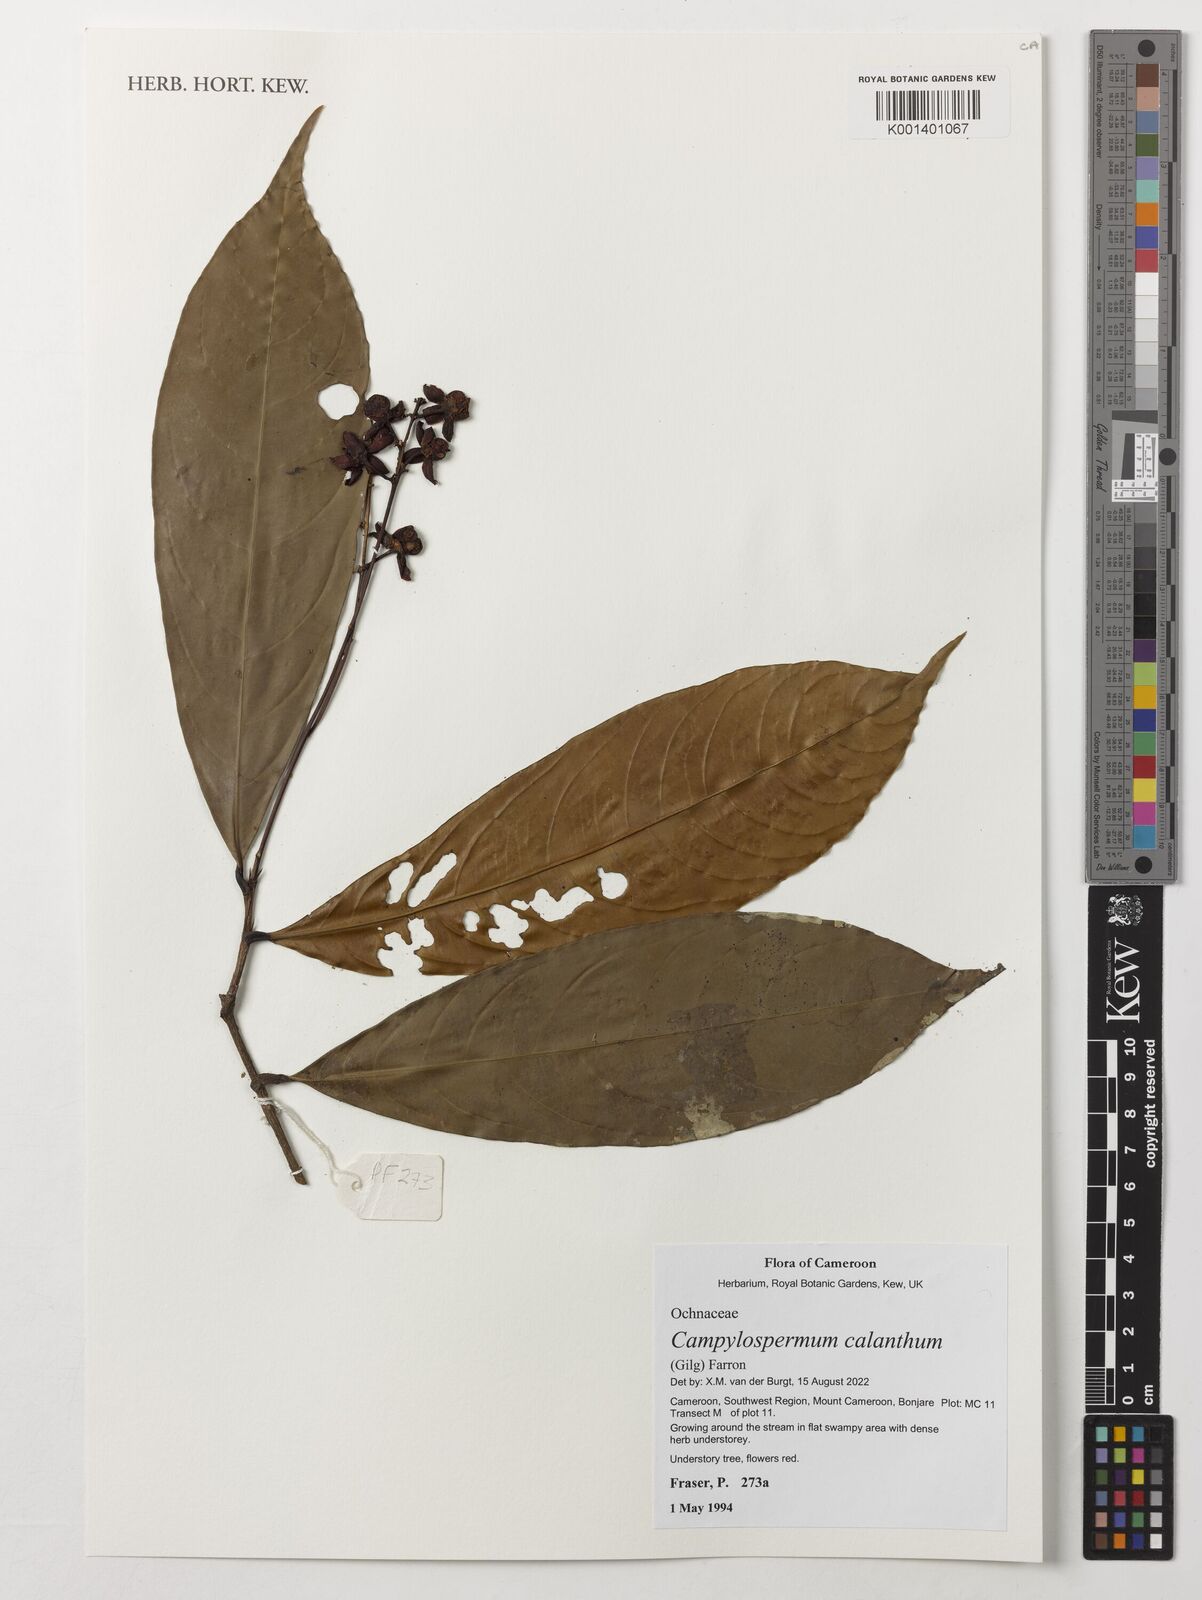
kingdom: Plantae
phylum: Tracheophyta
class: Magnoliopsida
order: Malpighiales
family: Ochnaceae
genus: Campylospermum
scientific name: Campylospermum calanthum
